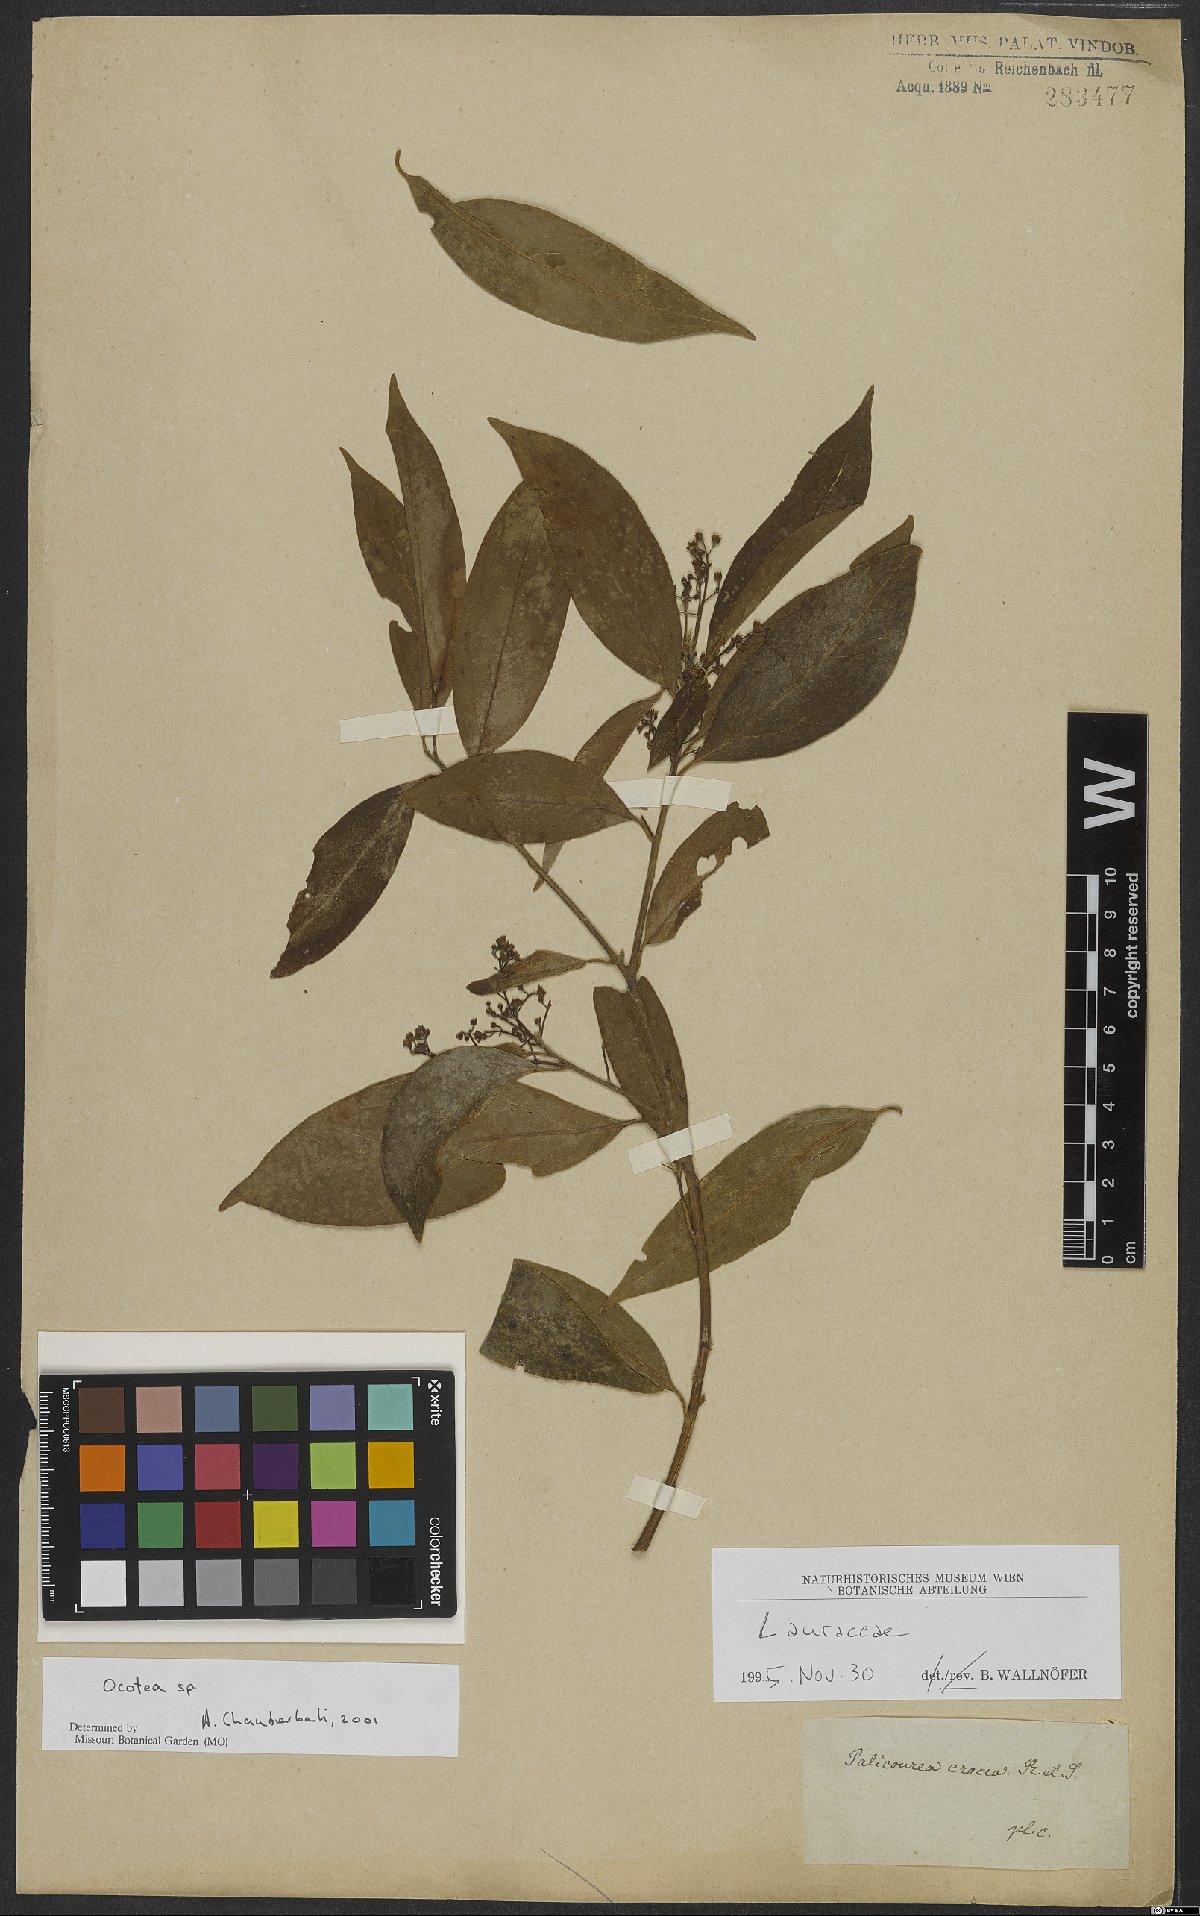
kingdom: Plantae
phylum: Tracheophyta
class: Magnoliopsida
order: Laurales
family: Lauraceae
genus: Ocotea
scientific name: Ocotea
